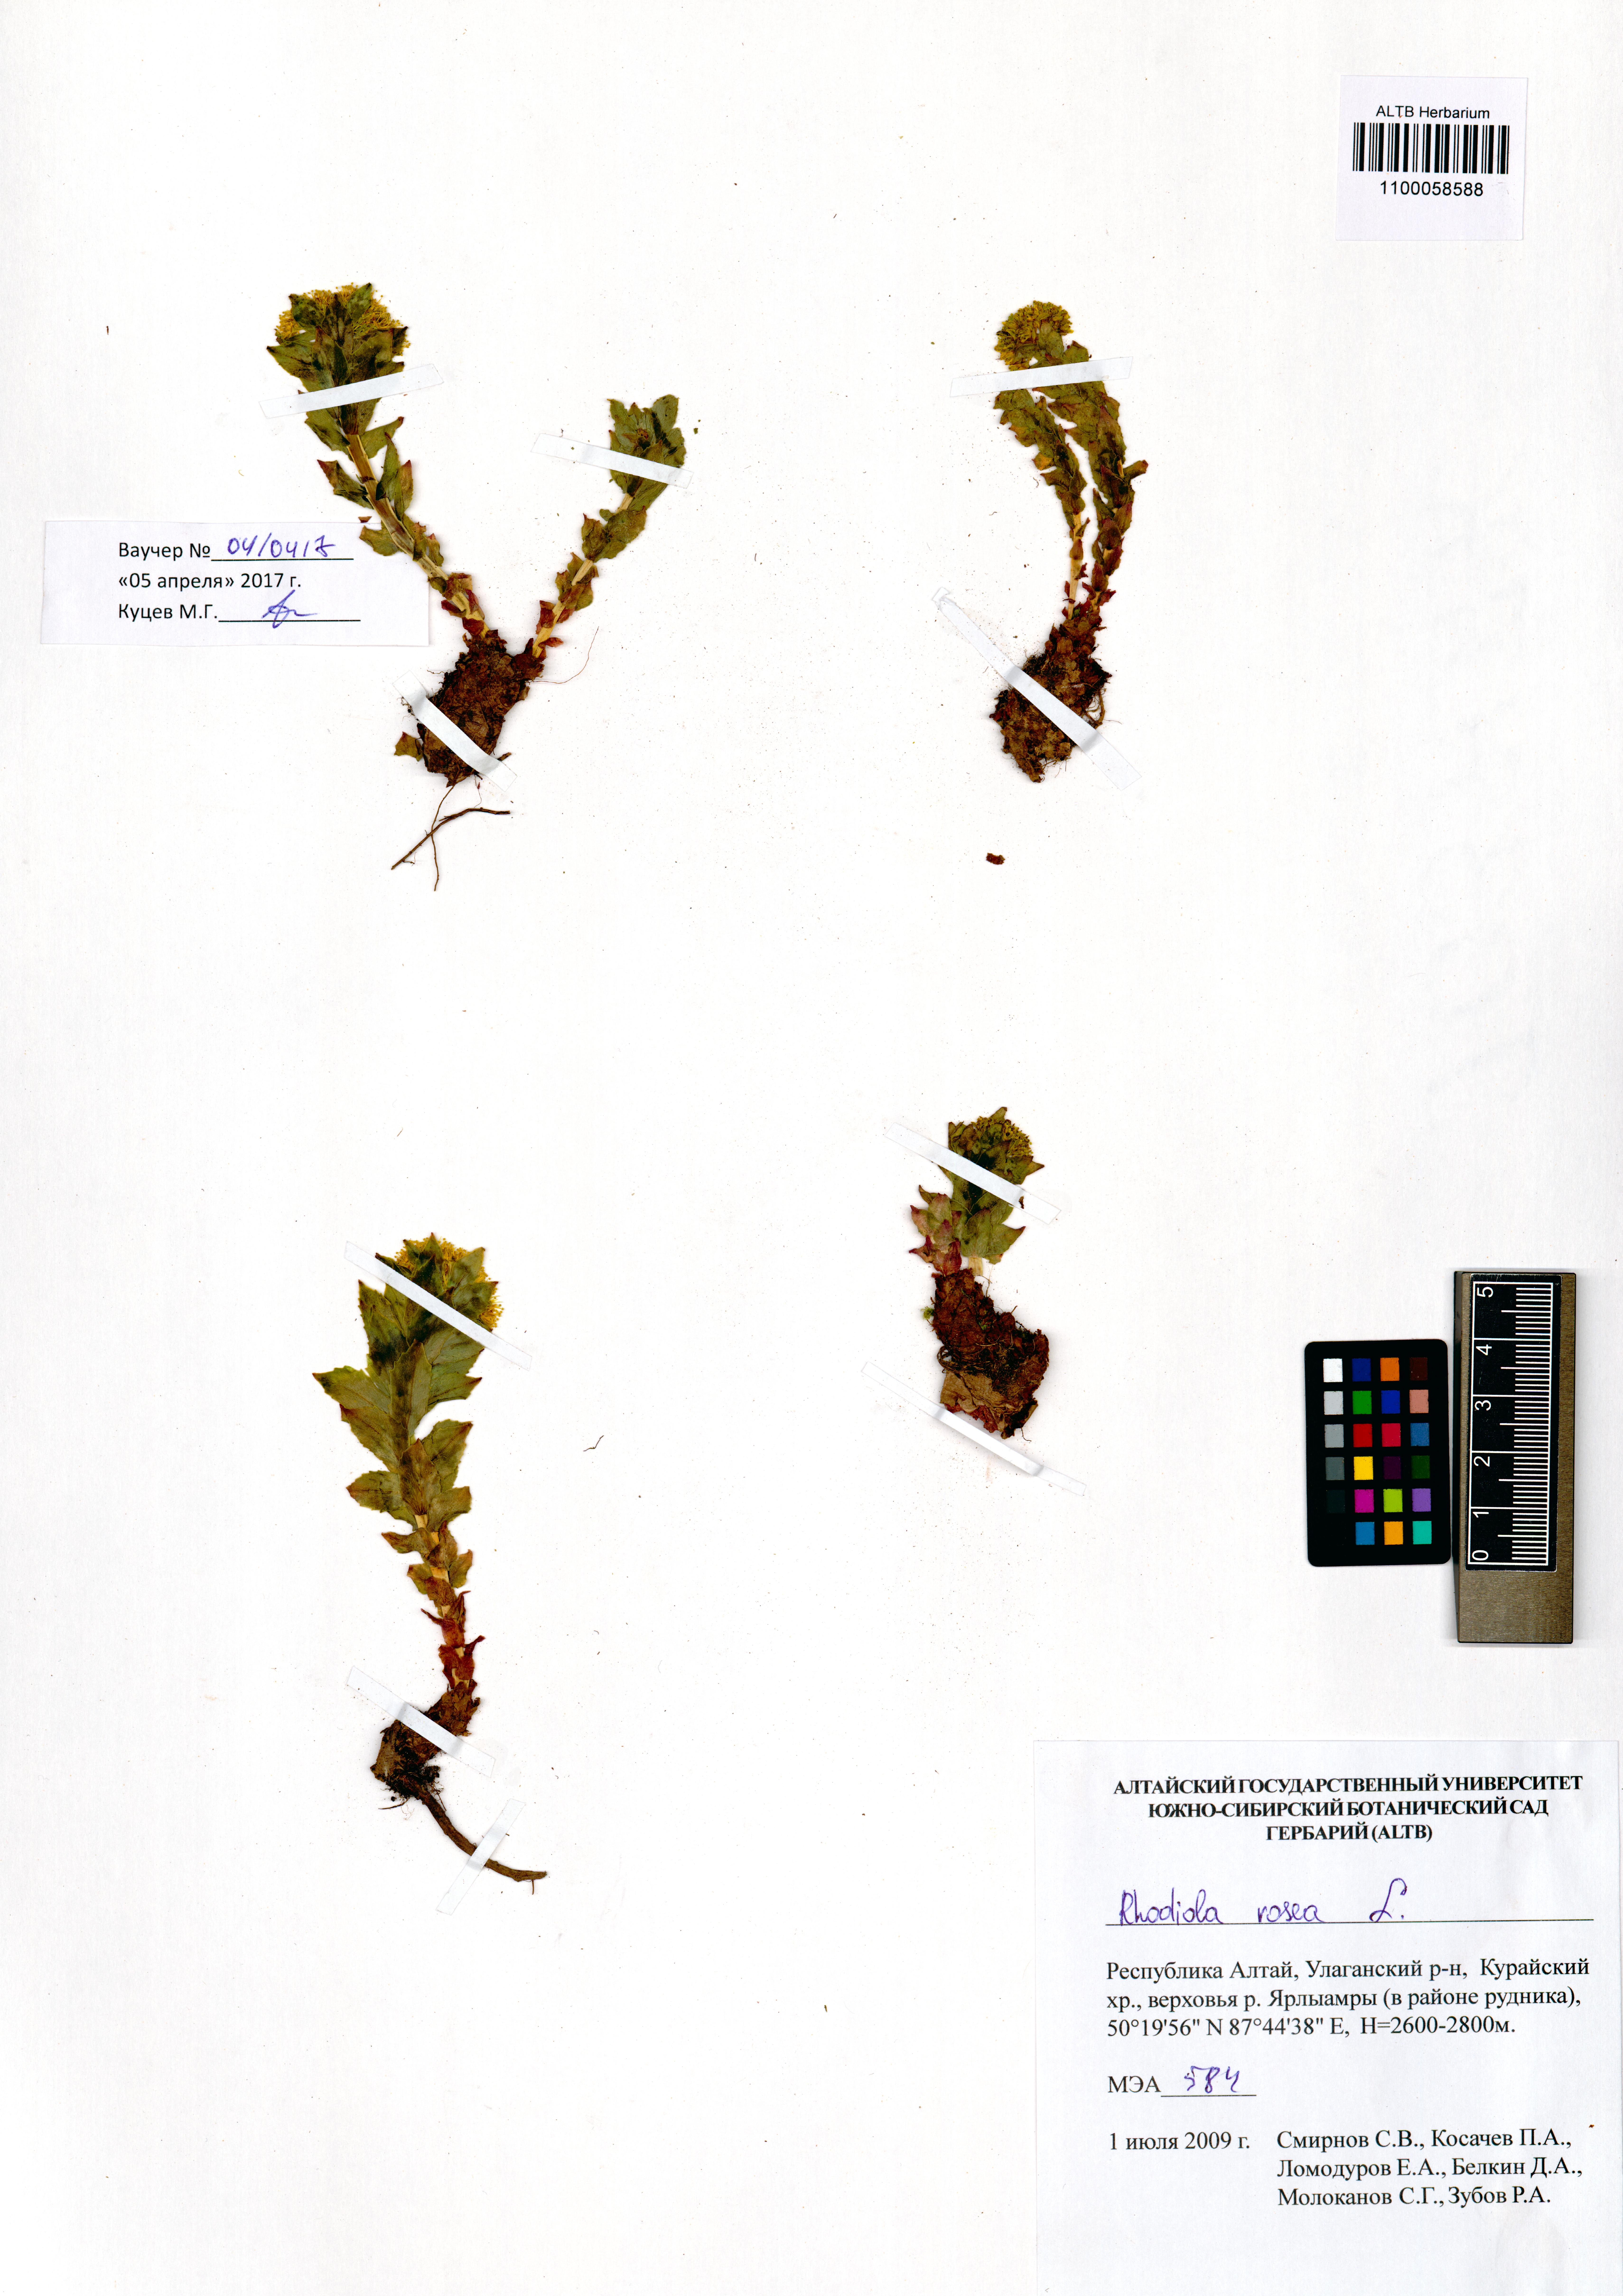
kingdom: Plantae
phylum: Tracheophyta
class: Magnoliopsida
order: Saxifragales
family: Crassulaceae
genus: Rhodiola
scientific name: Rhodiola rosea
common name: Roseroot
